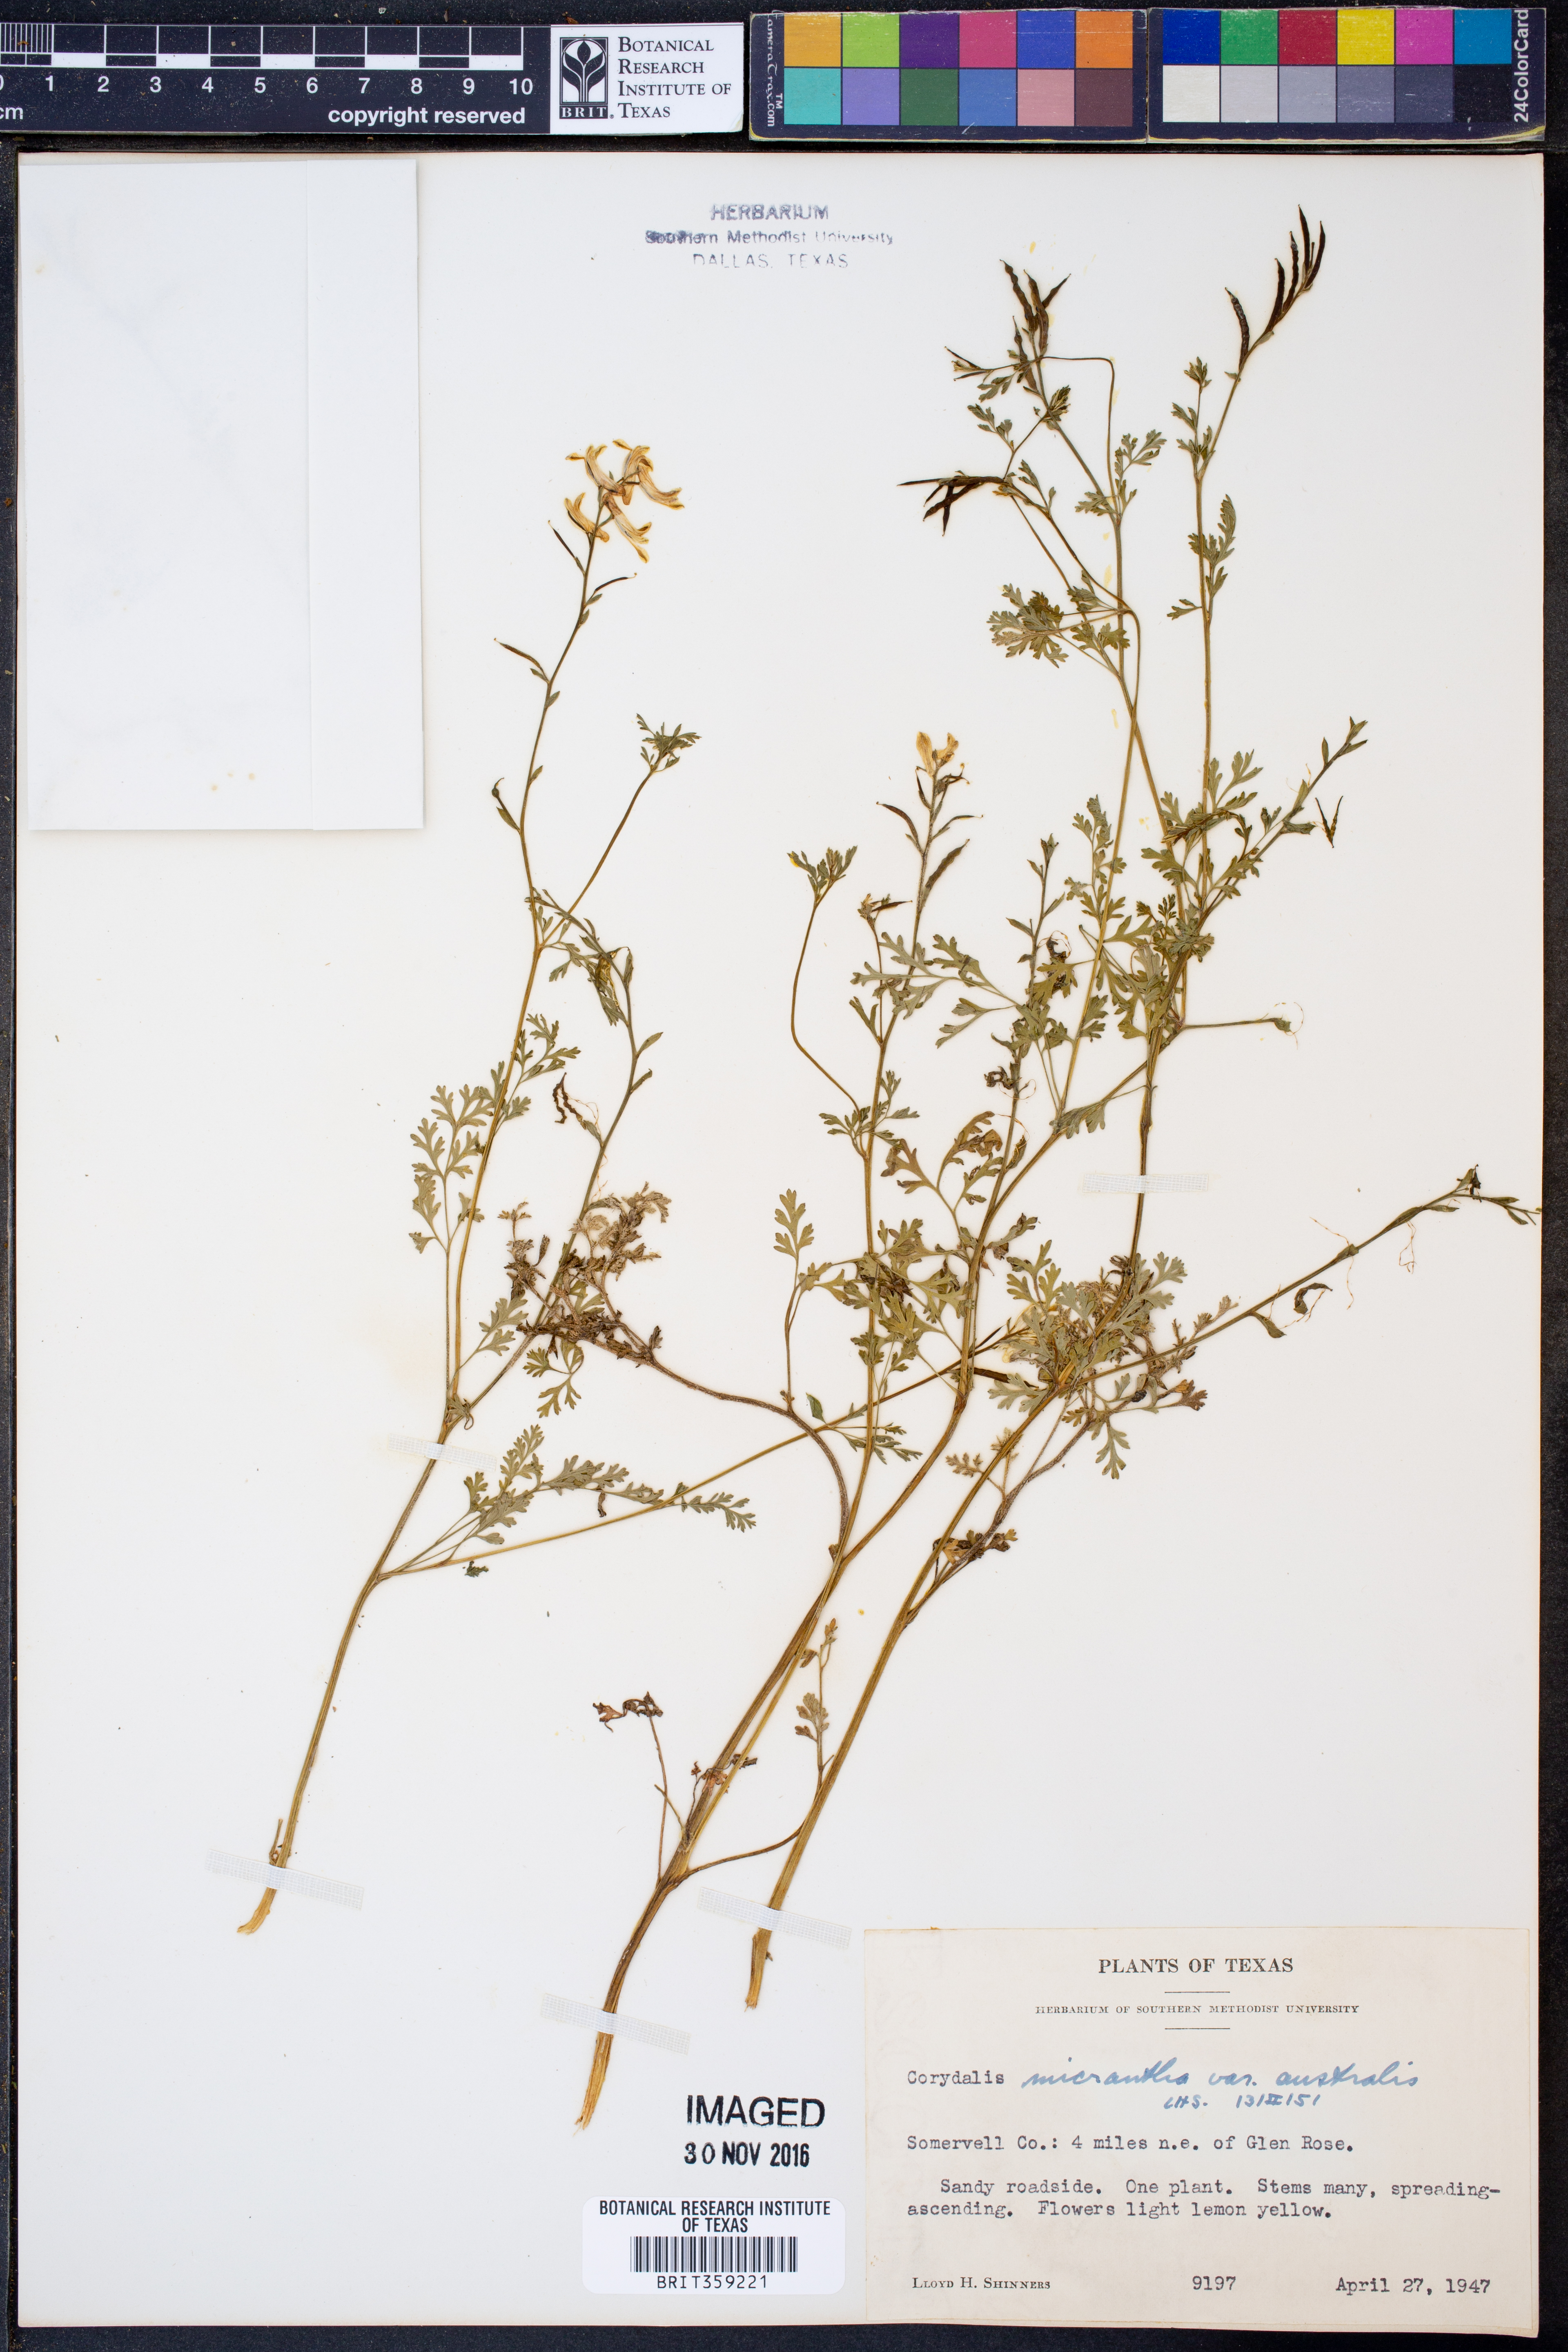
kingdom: Plantae
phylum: Tracheophyta
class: Magnoliopsida
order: Ranunculales
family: Papaveraceae
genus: Corydalis
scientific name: Corydalis micrantha
